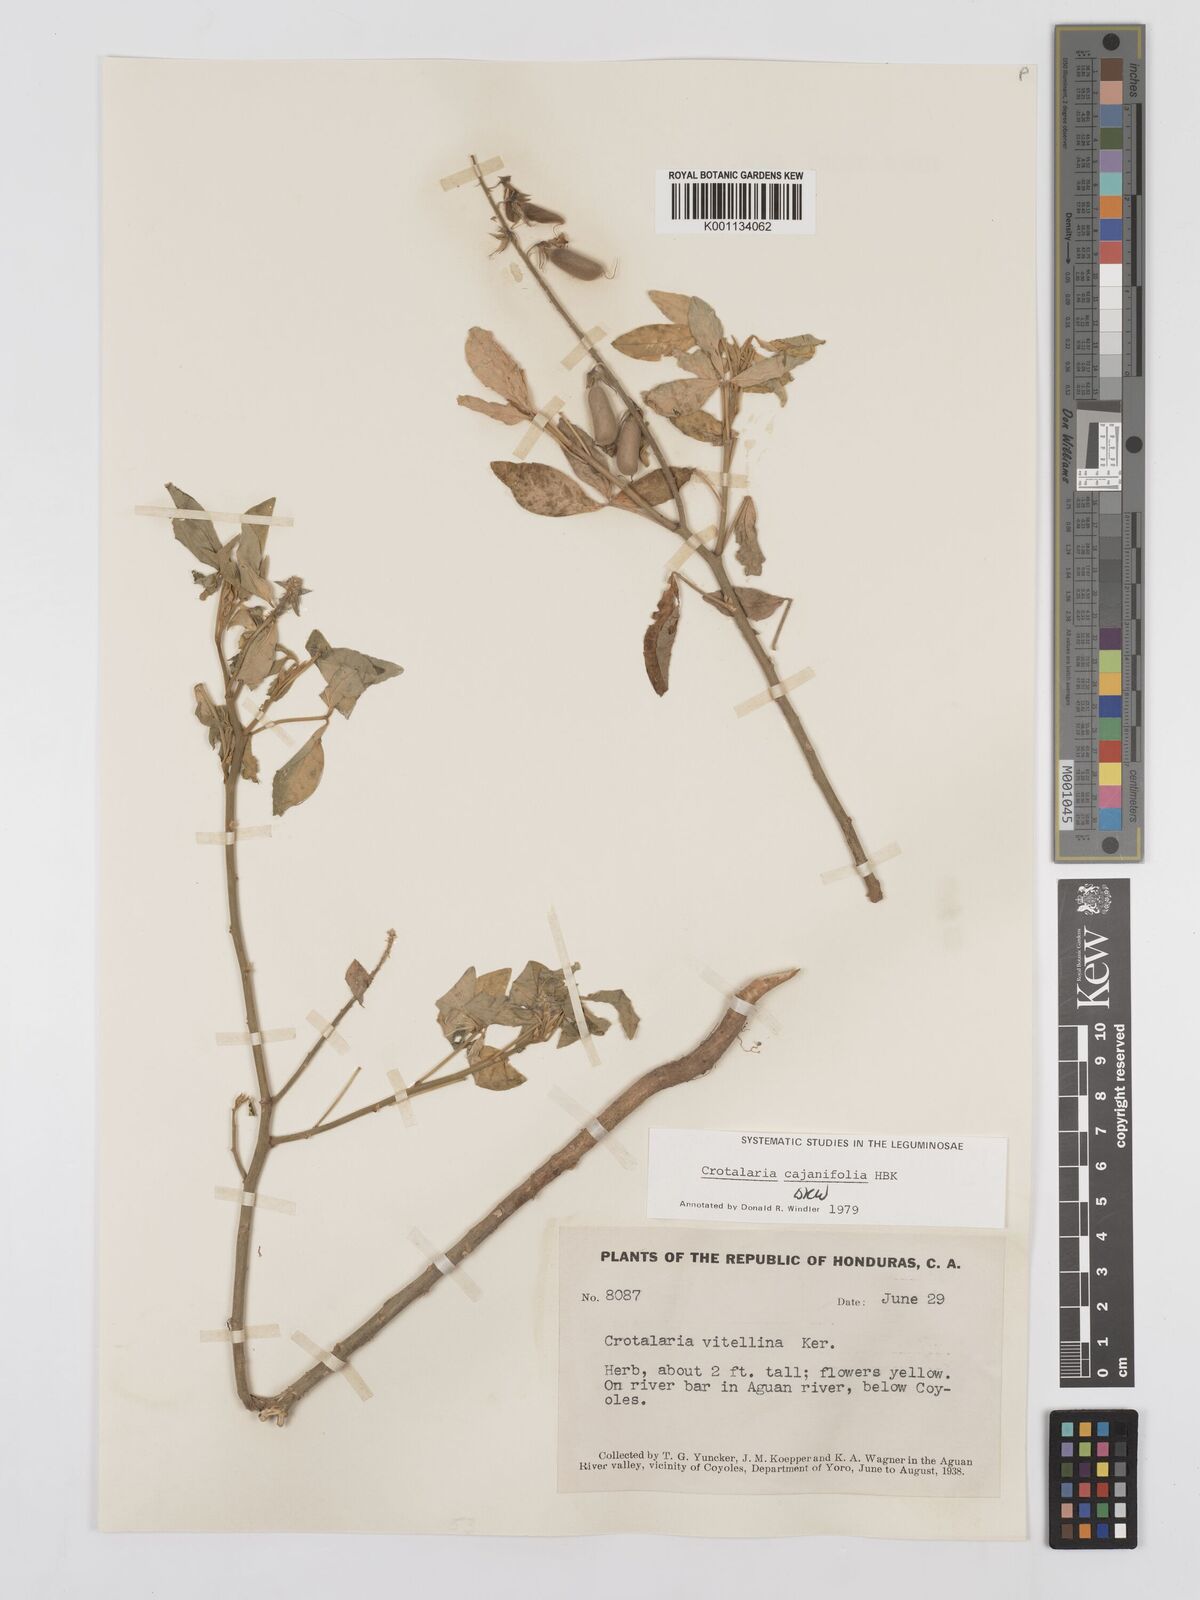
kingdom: Plantae
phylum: Tracheophyta
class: Magnoliopsida
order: Fabales
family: Fabaceae
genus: Crotalaria
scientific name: Crotalaria cajanifolia
